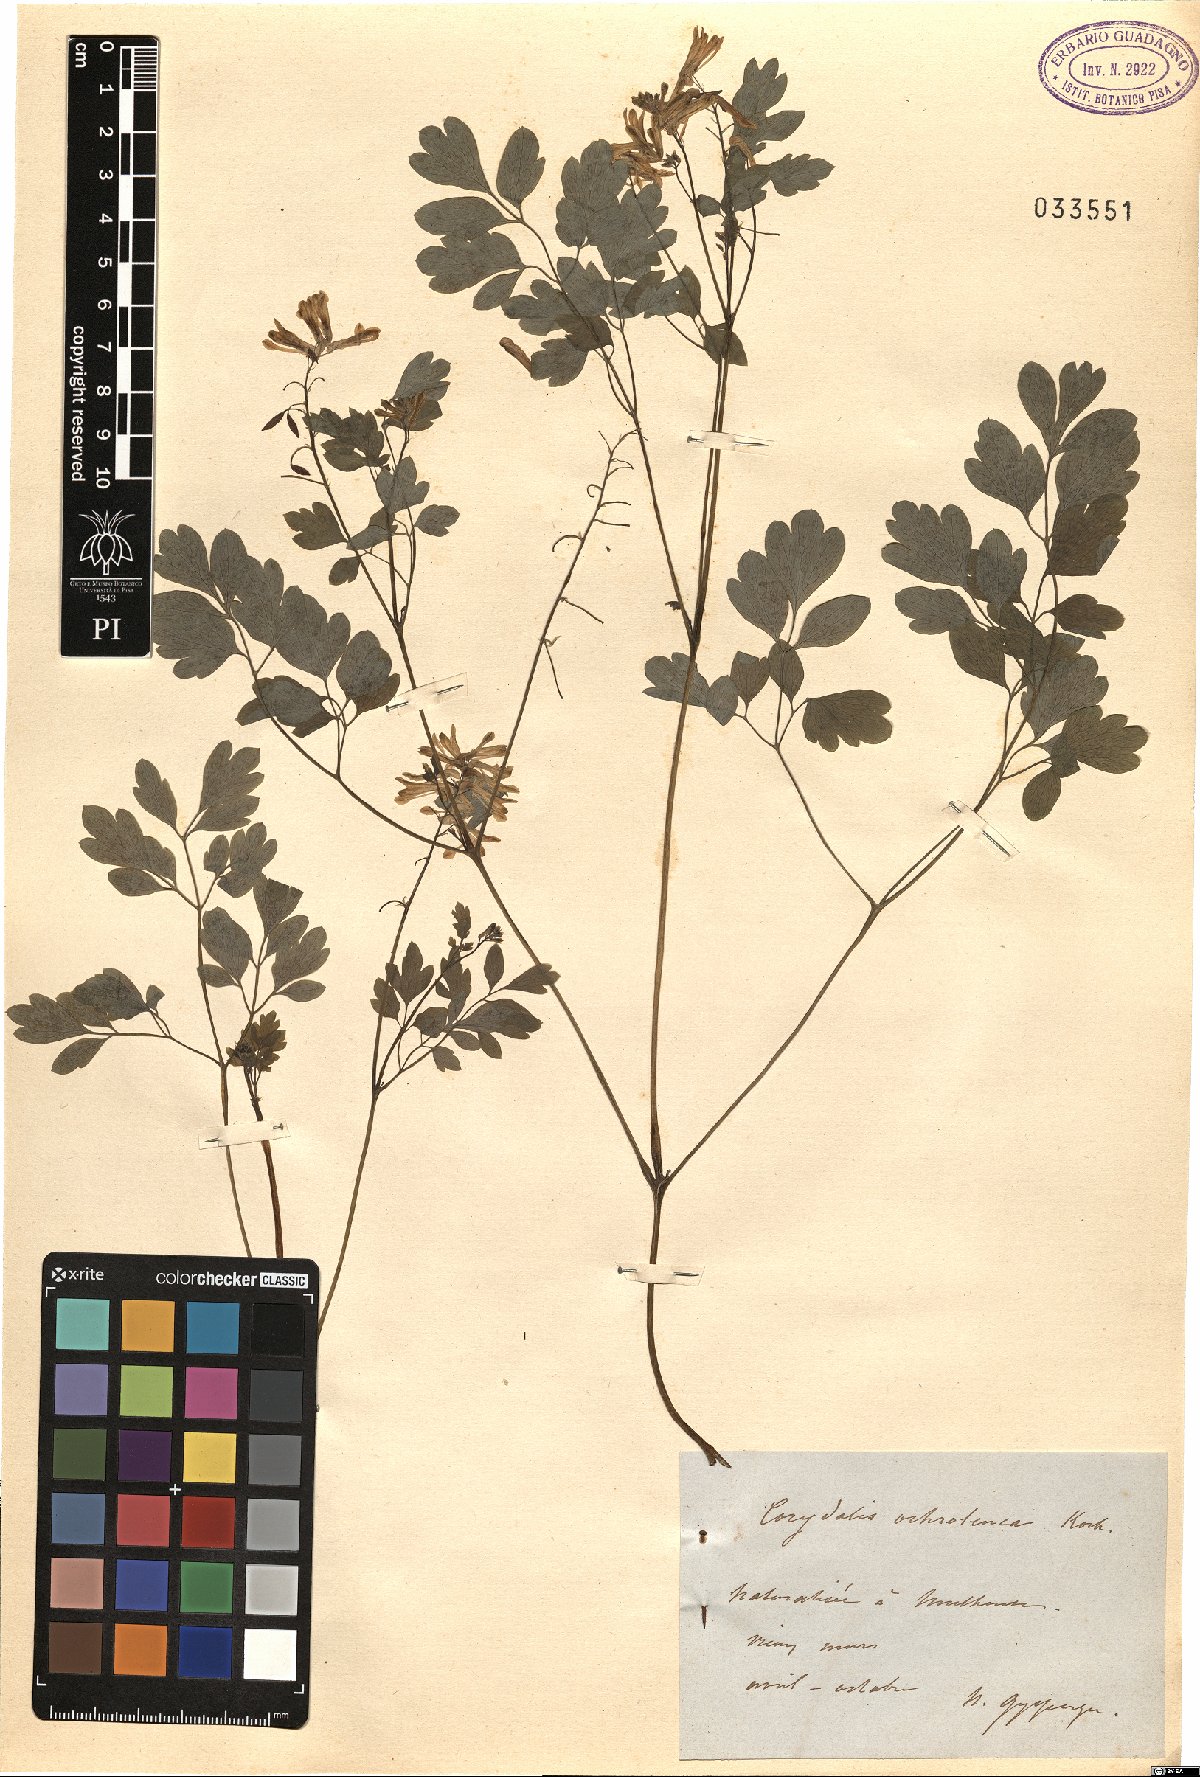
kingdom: Plantae
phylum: Tracheophyta
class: Magnoliopsida
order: Ranunculales
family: Papaveraceae
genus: Pseudofumaria
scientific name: Pseudofumaria alba
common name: Pale corydalis
